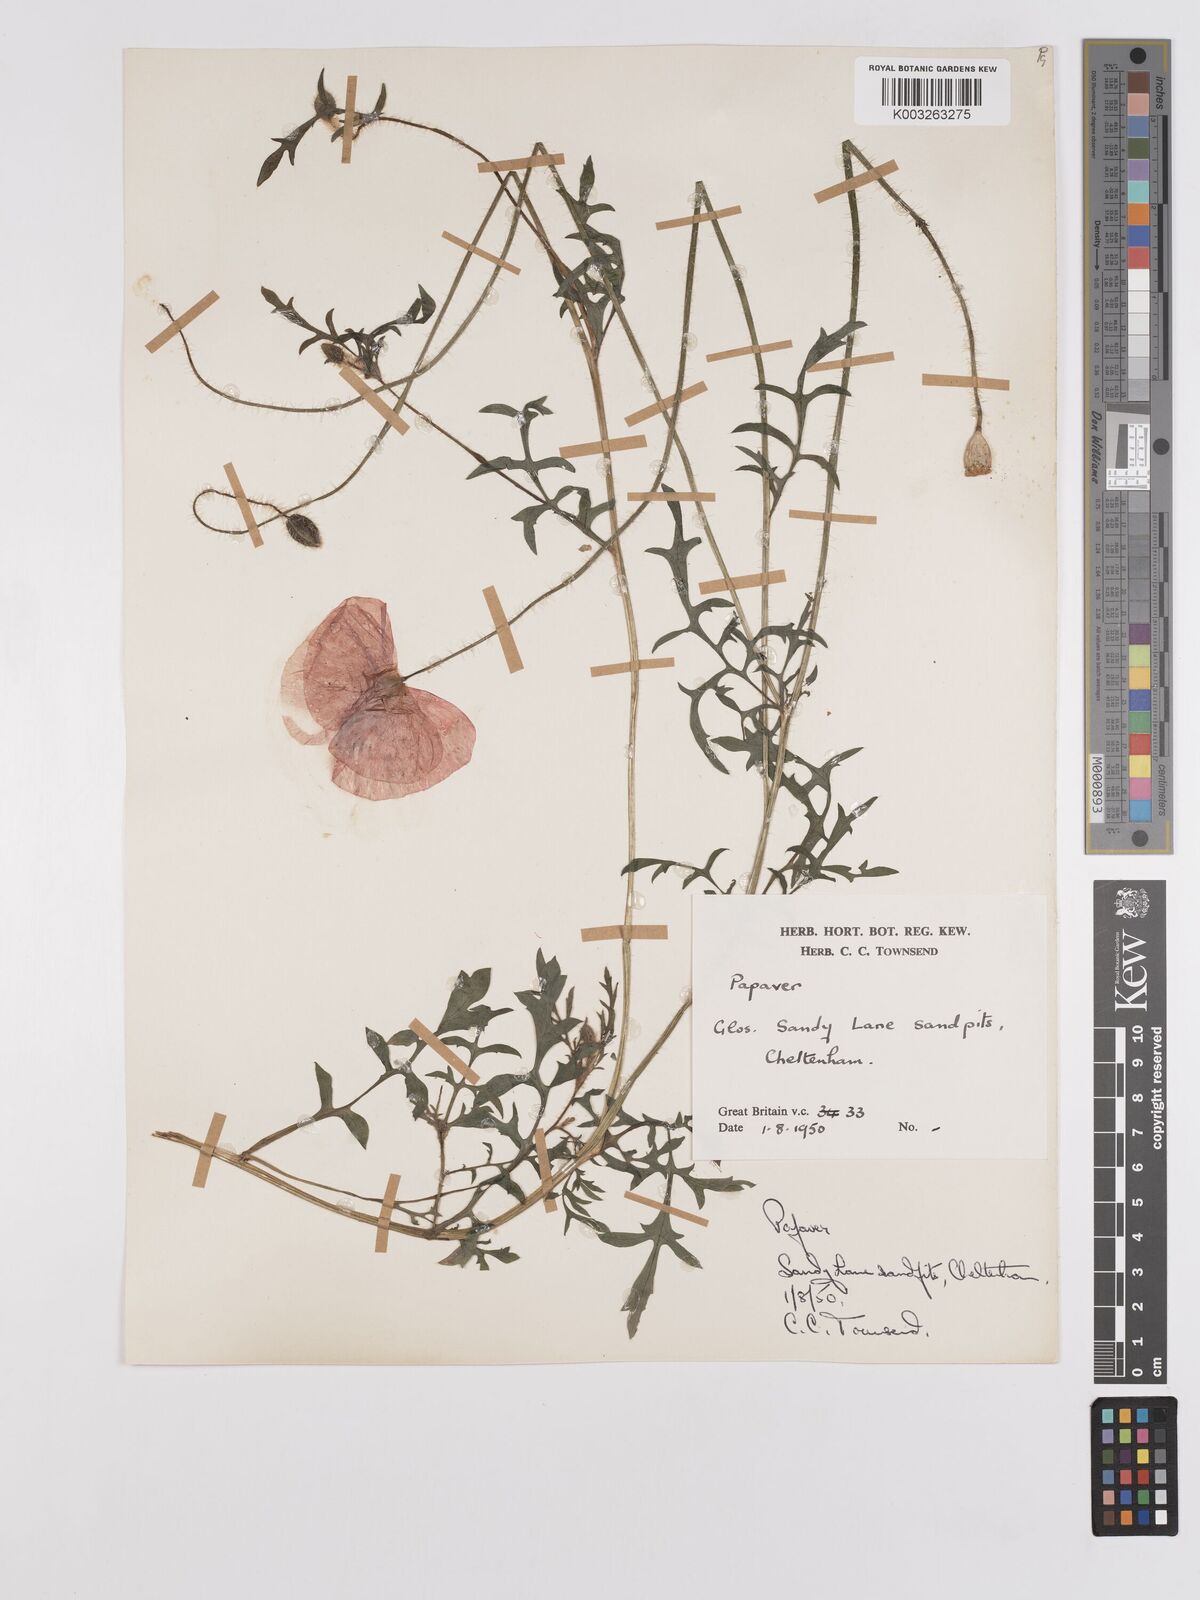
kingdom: Plantae
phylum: Tracheophyta
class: Magnoliopsida
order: Ranunculales
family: Papaveraceae
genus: Papaver
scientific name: Papaver
